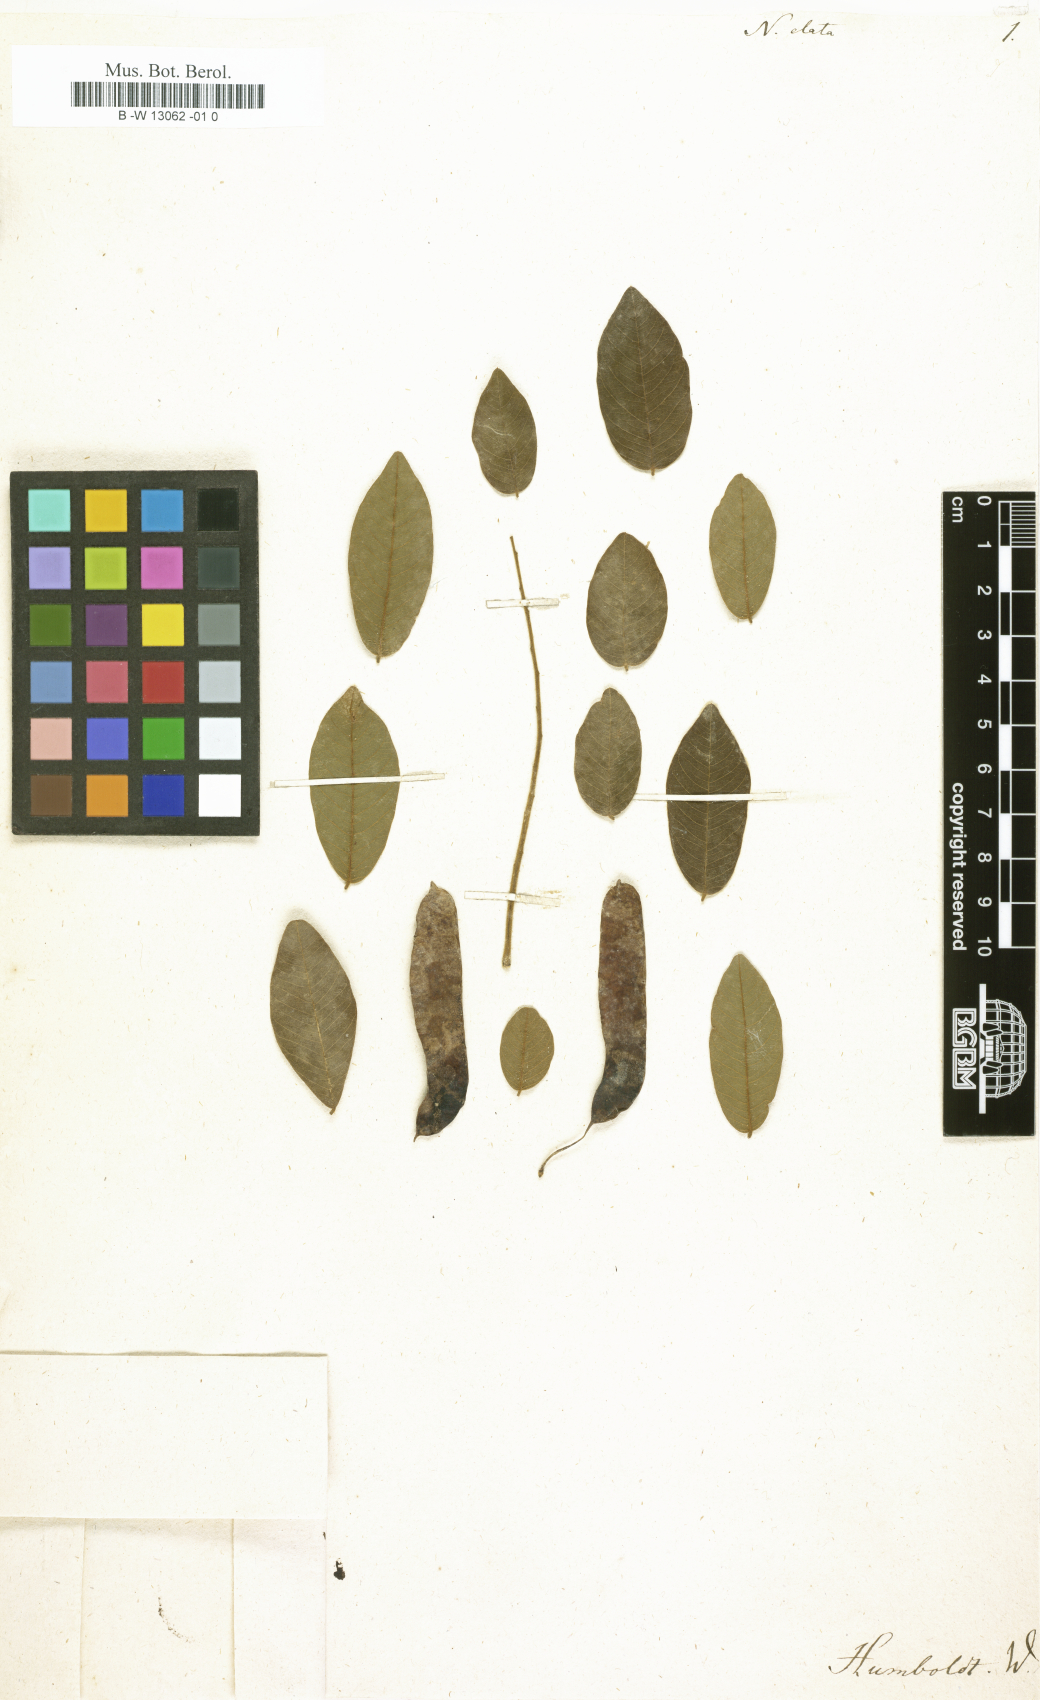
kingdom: Plantae
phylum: Tracheophyta
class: Magnoliopsida
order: Fabales
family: Fabaceae
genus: Nissolia
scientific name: Nissolia
